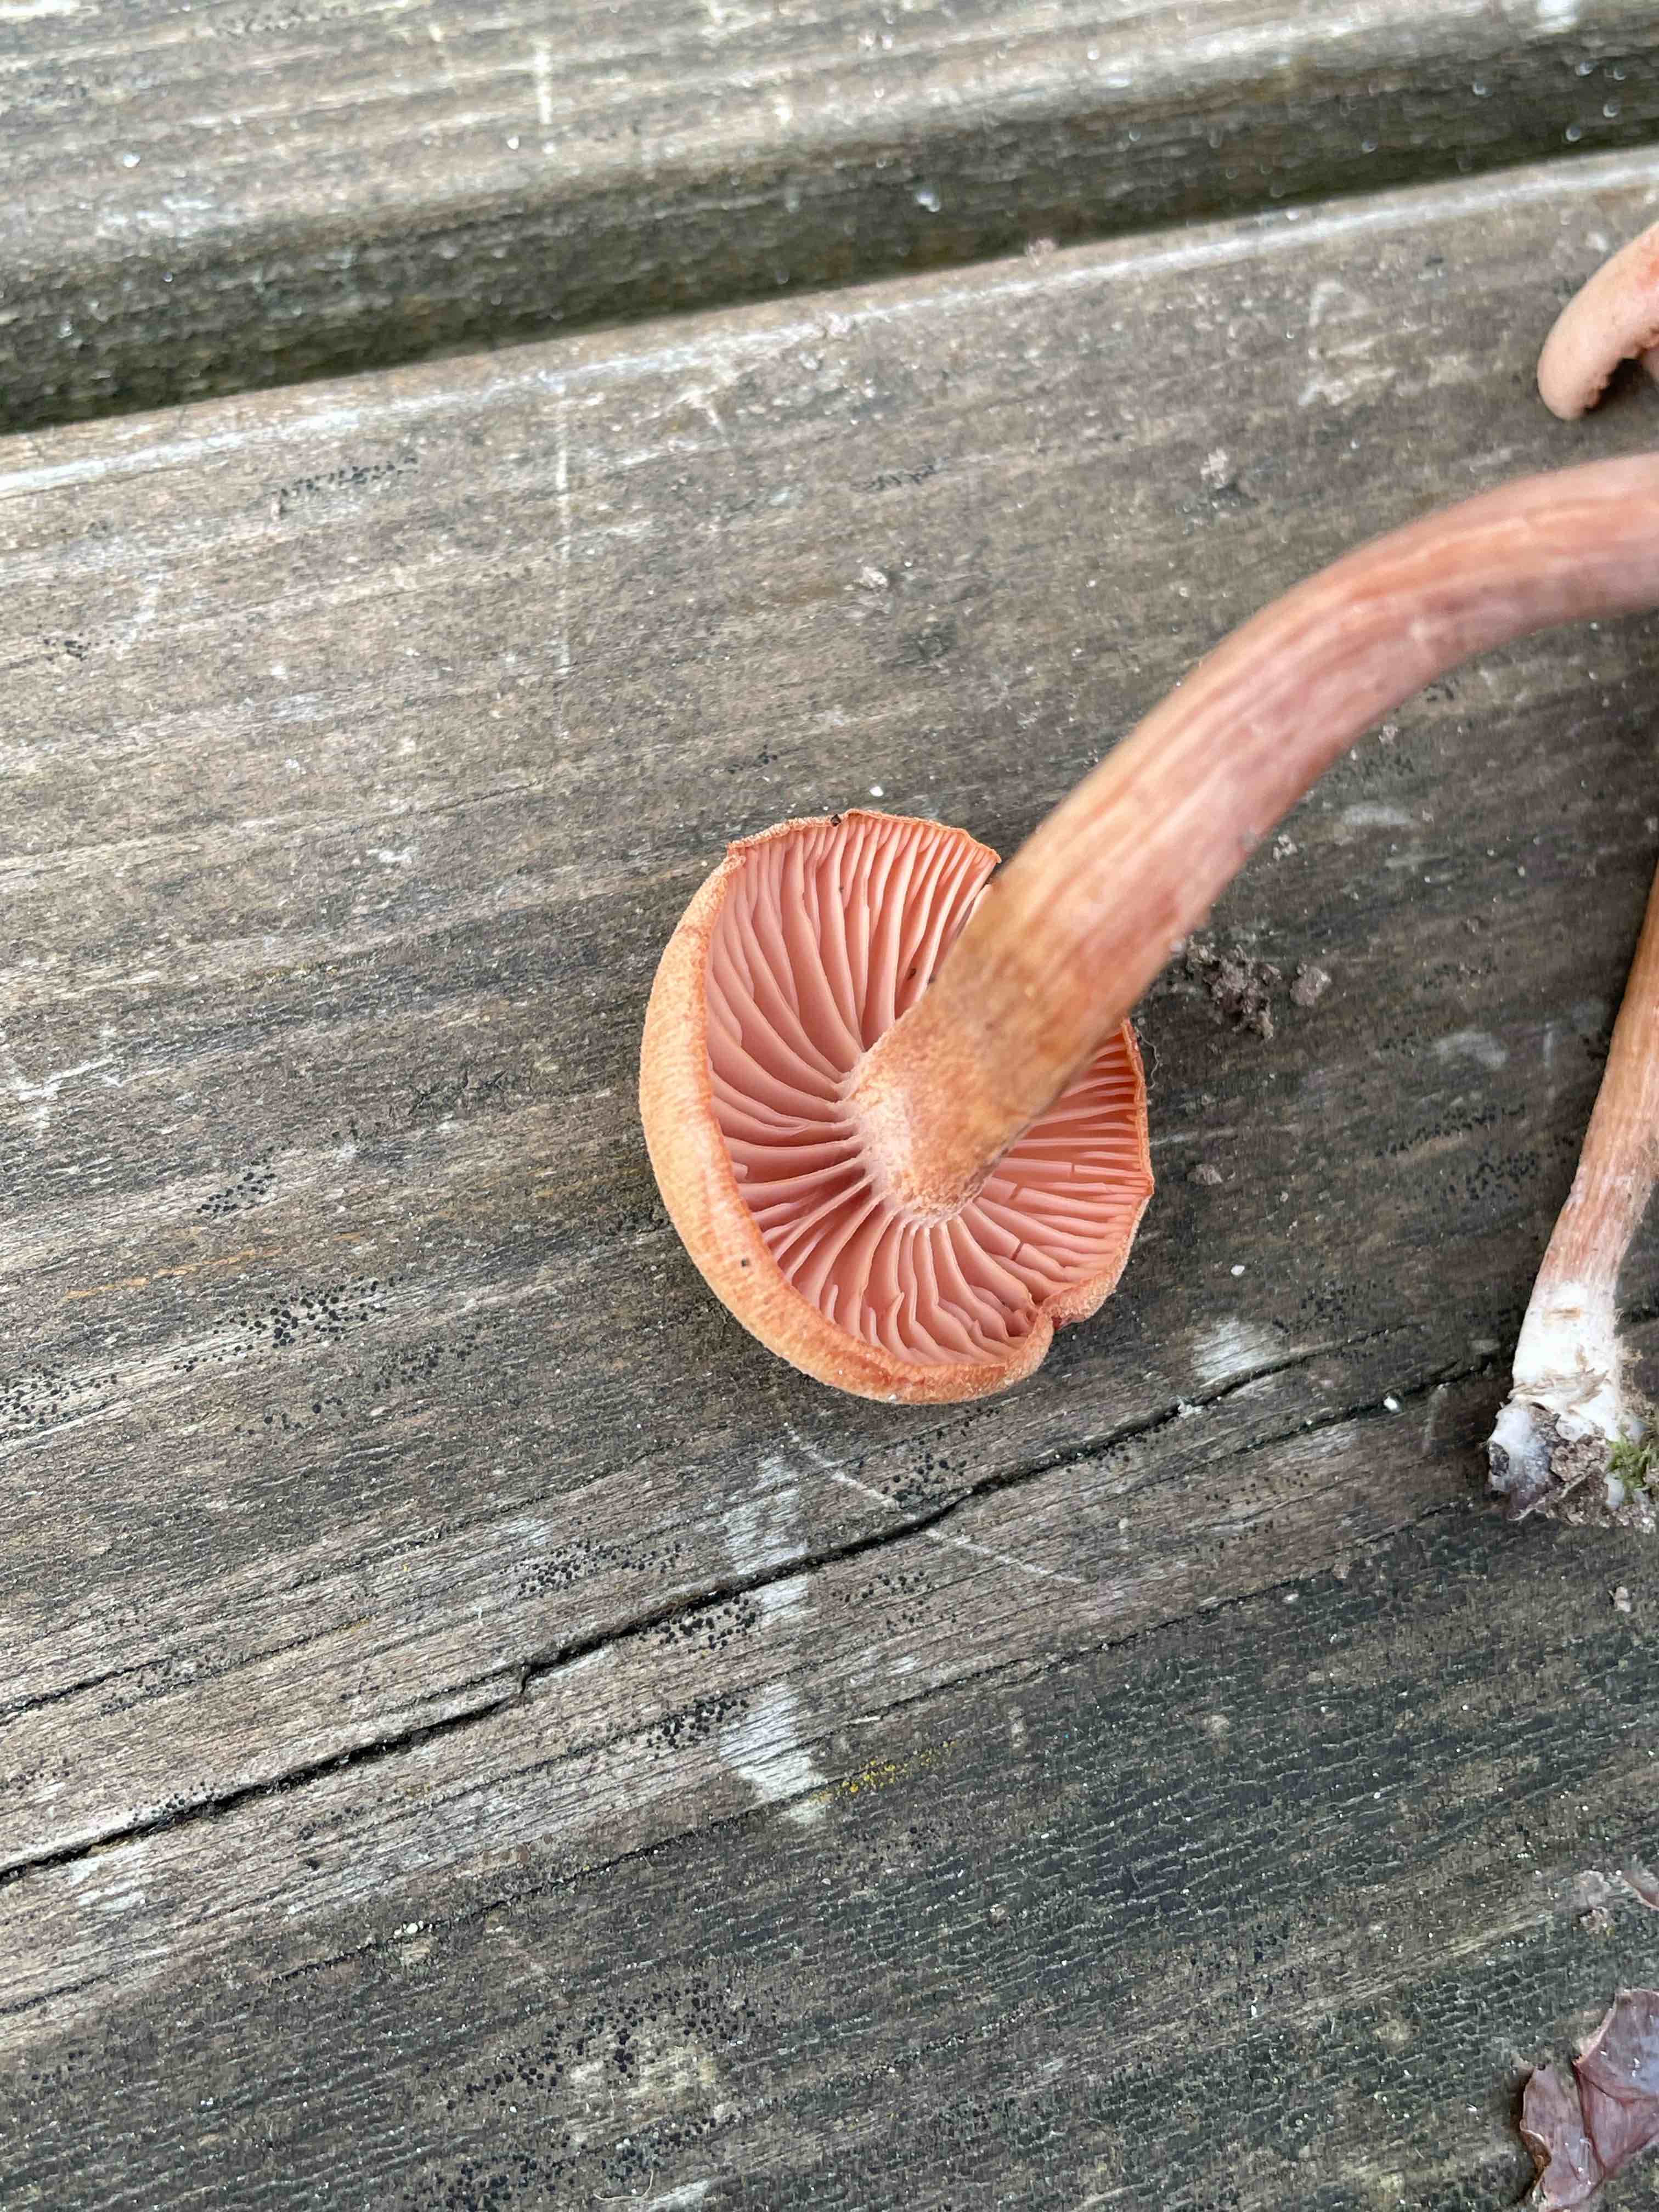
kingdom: Fungi
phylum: Basidiomycota
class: Agaricomycetes
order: Agaricales
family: Hydnangiaceae
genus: Laccaria
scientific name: Laccaria
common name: ametysthat
